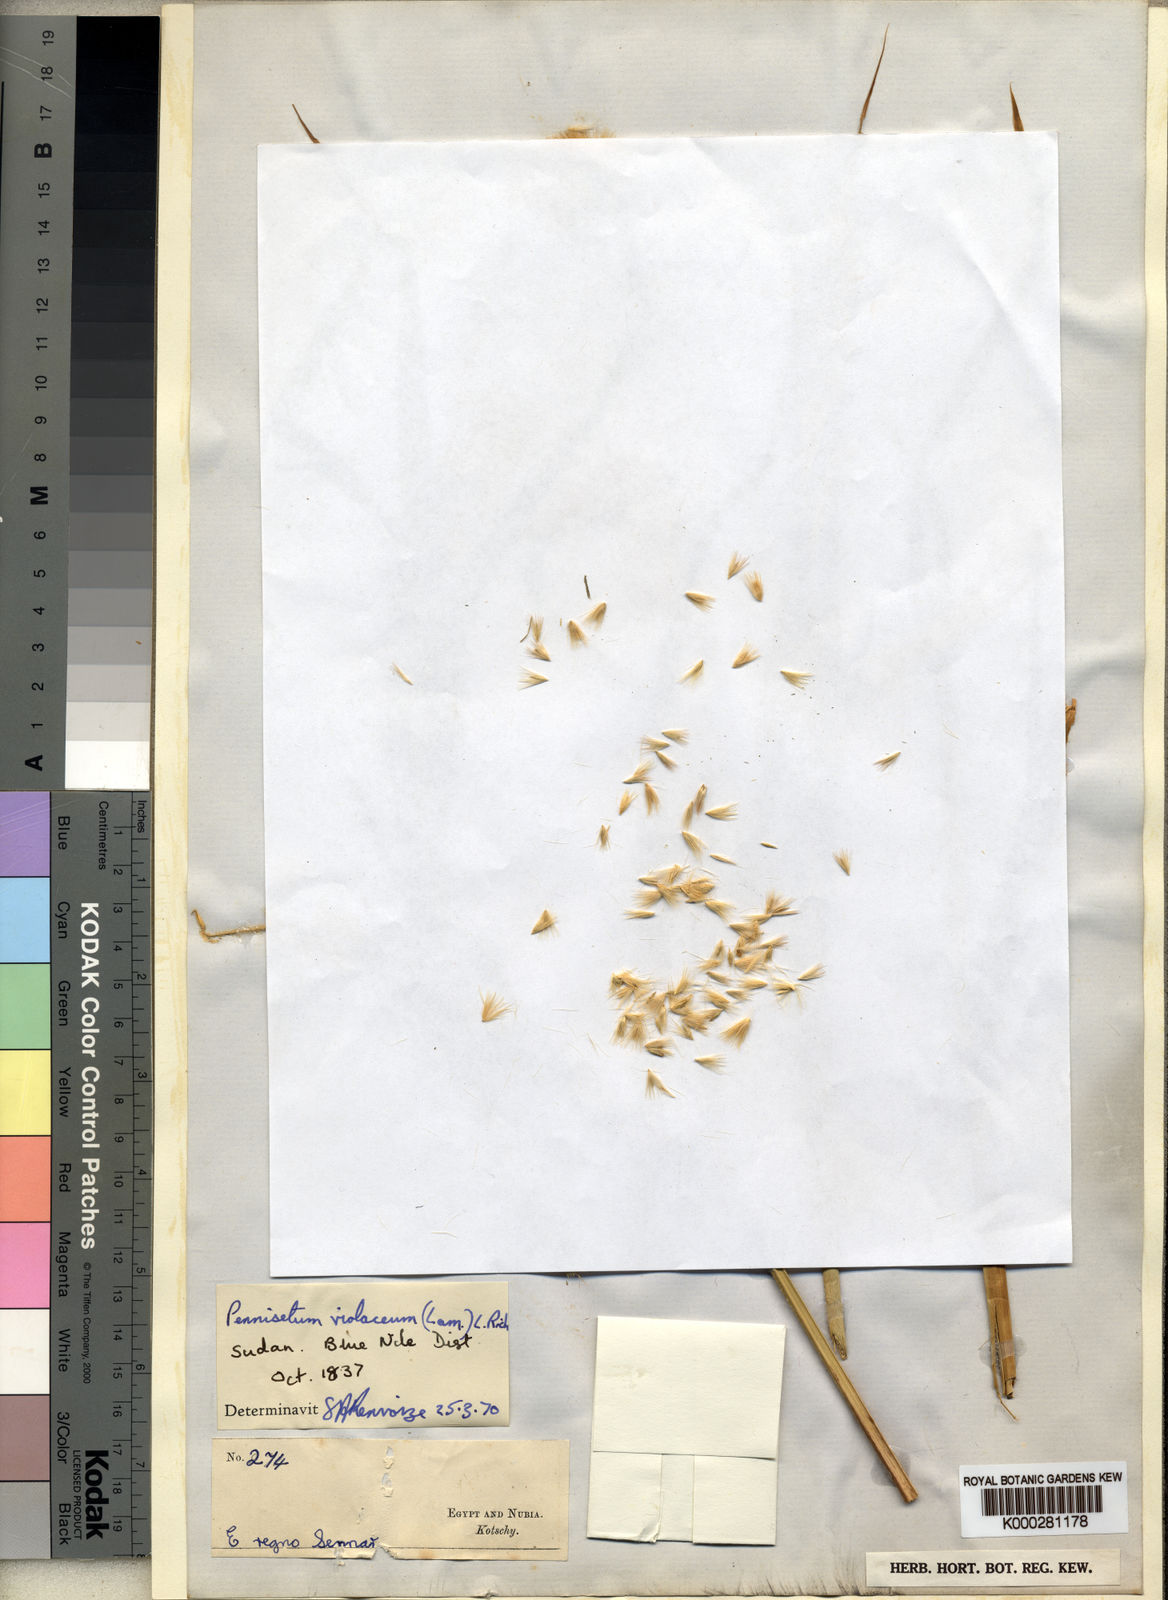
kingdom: Plantae
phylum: Tracheophyta
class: Liliopsida
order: Poales
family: Poaceae
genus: Cenchrus
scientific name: Cenchrus violaceus
